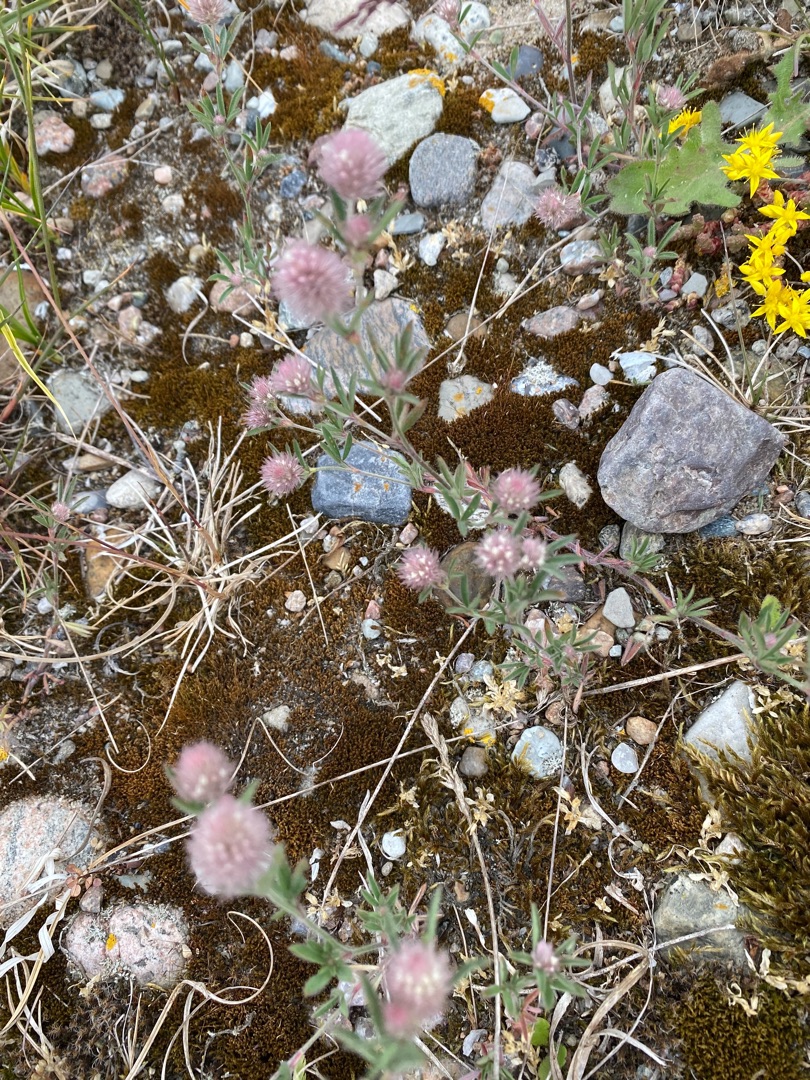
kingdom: Plantae
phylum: Tracheophyta
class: Magnoliopsida
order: Fabales
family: Fabaceae
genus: Trifolium
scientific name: Trifolium arvense
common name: Hare-kløver
